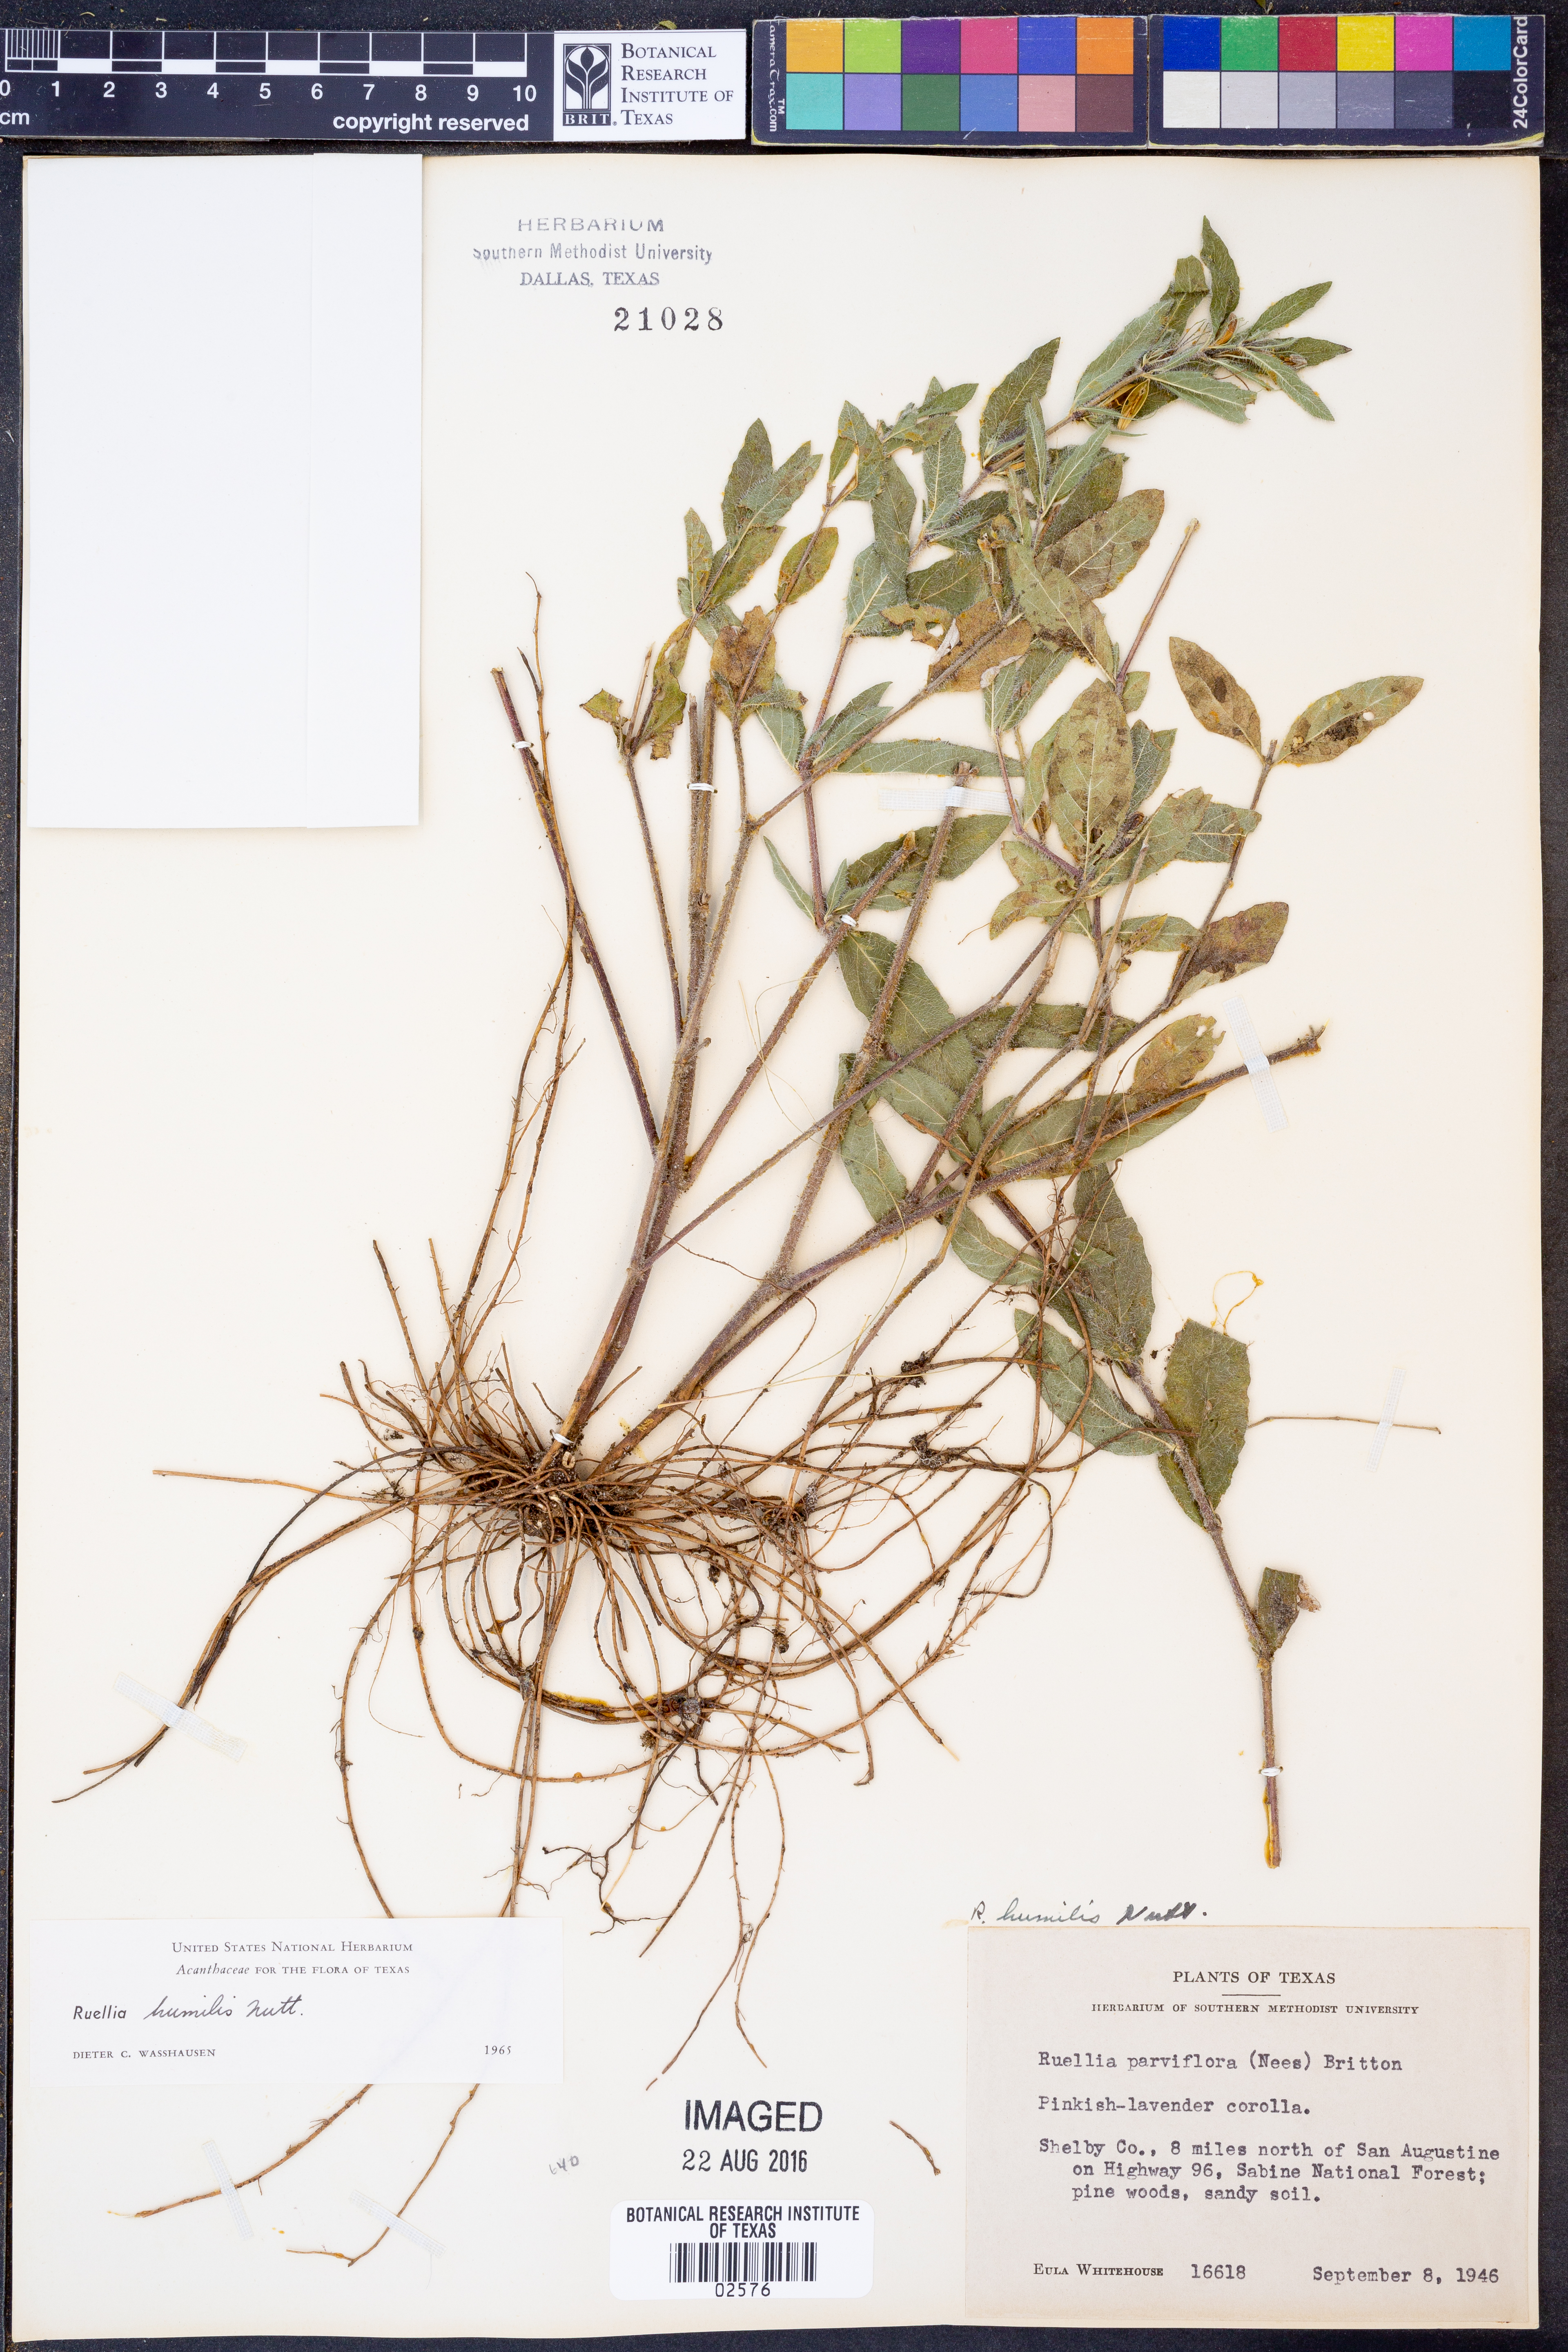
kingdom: Plantae
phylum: Tracheophyta
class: Magnoliopsida
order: Lamiales
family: Acanthaceae
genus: Ruellia
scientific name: Ruellia humilis
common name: Fringe-leaf ruellia
